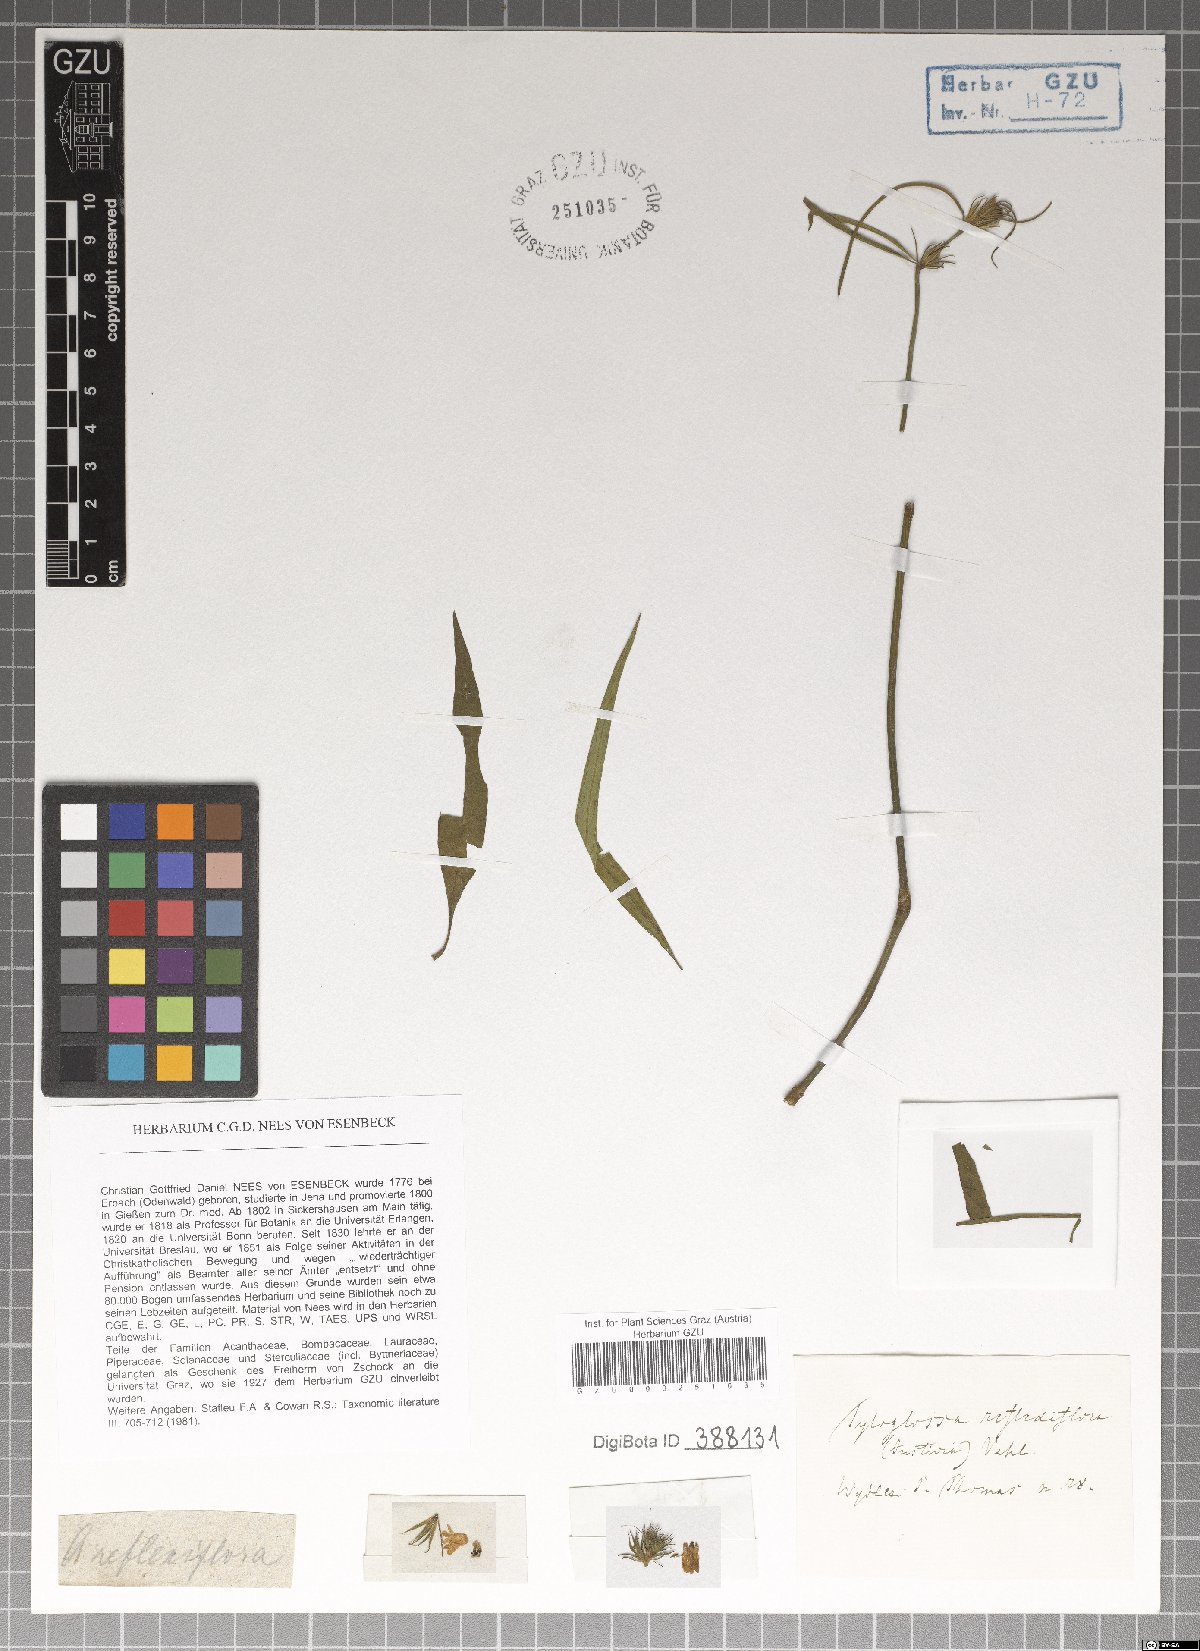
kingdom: Plantae
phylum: Tracheophyta
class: Magnoliopsida
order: Lamiales
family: Acanthaceae
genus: Justicia
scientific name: Justicia periplocifolia
